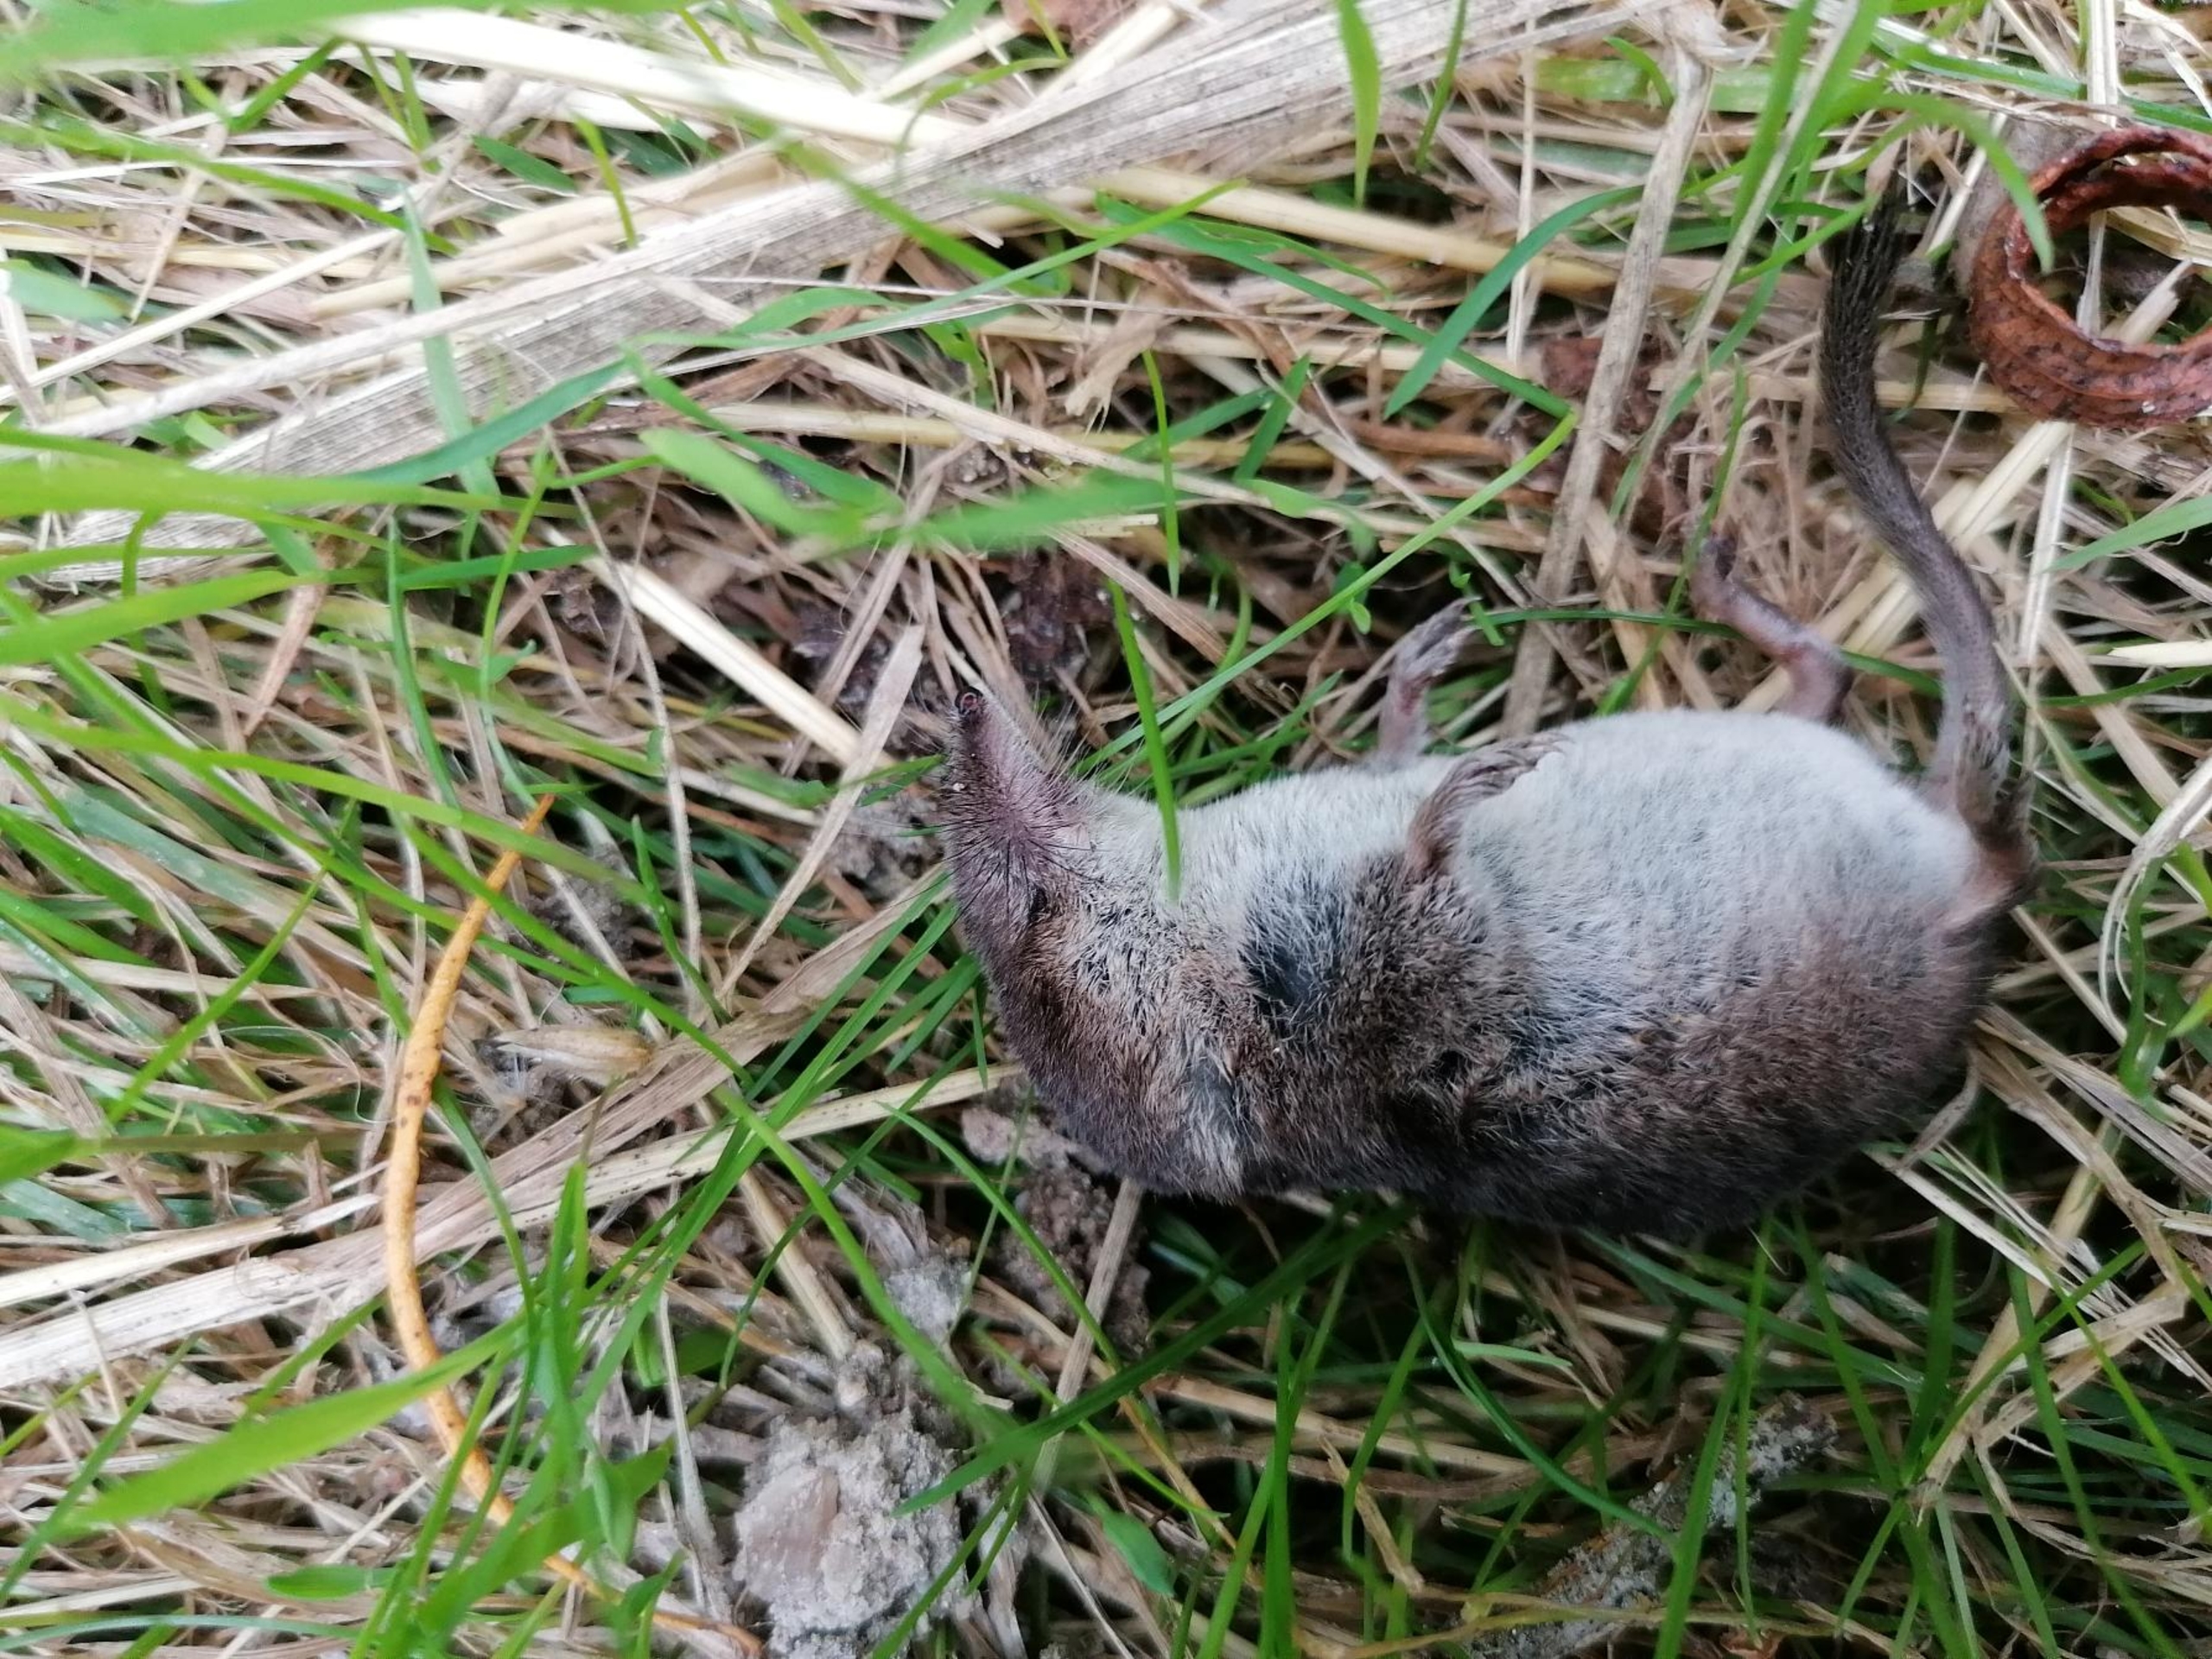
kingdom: Animalia
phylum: Chordata
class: Mammalia
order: Soricomorpha
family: Soricidae
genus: Sorex
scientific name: Sorex minutus
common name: Dværgspidsmus
